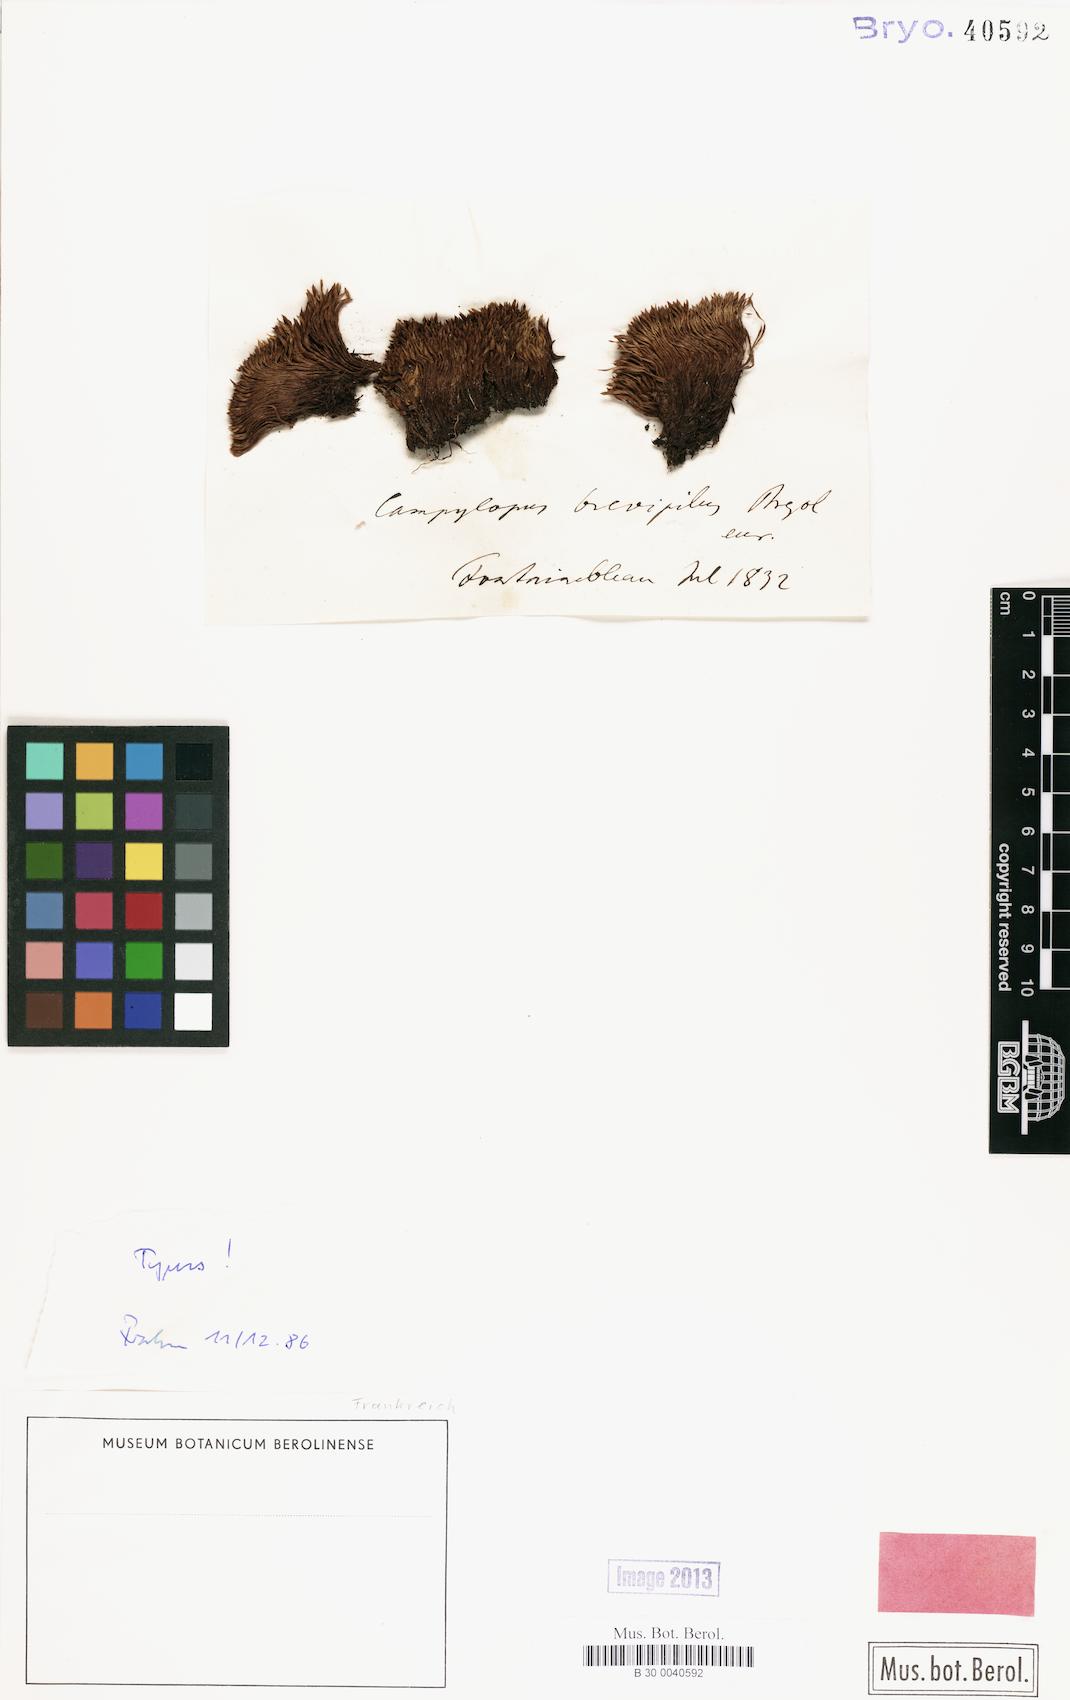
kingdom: Plantae
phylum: Bryophyta
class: Bryopsida
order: Dicranales
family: Leucobryaceae
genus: Campylopus
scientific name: Campylopus brevipilus
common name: Compact swan-neck moss
